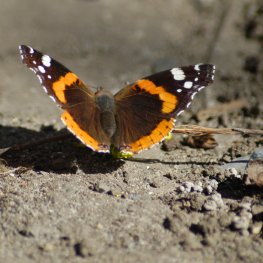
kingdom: Animalia
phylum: Arthropoda
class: Insecta
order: Lepidoptera
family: Nymphalidae
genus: Vanessa
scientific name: Vanessa atalanta
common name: Red Admiral
